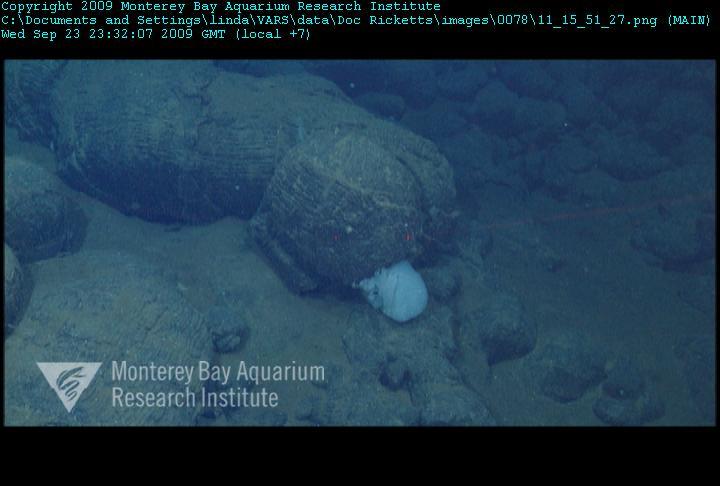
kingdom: Animalia
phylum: Porifera
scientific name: Porifera
